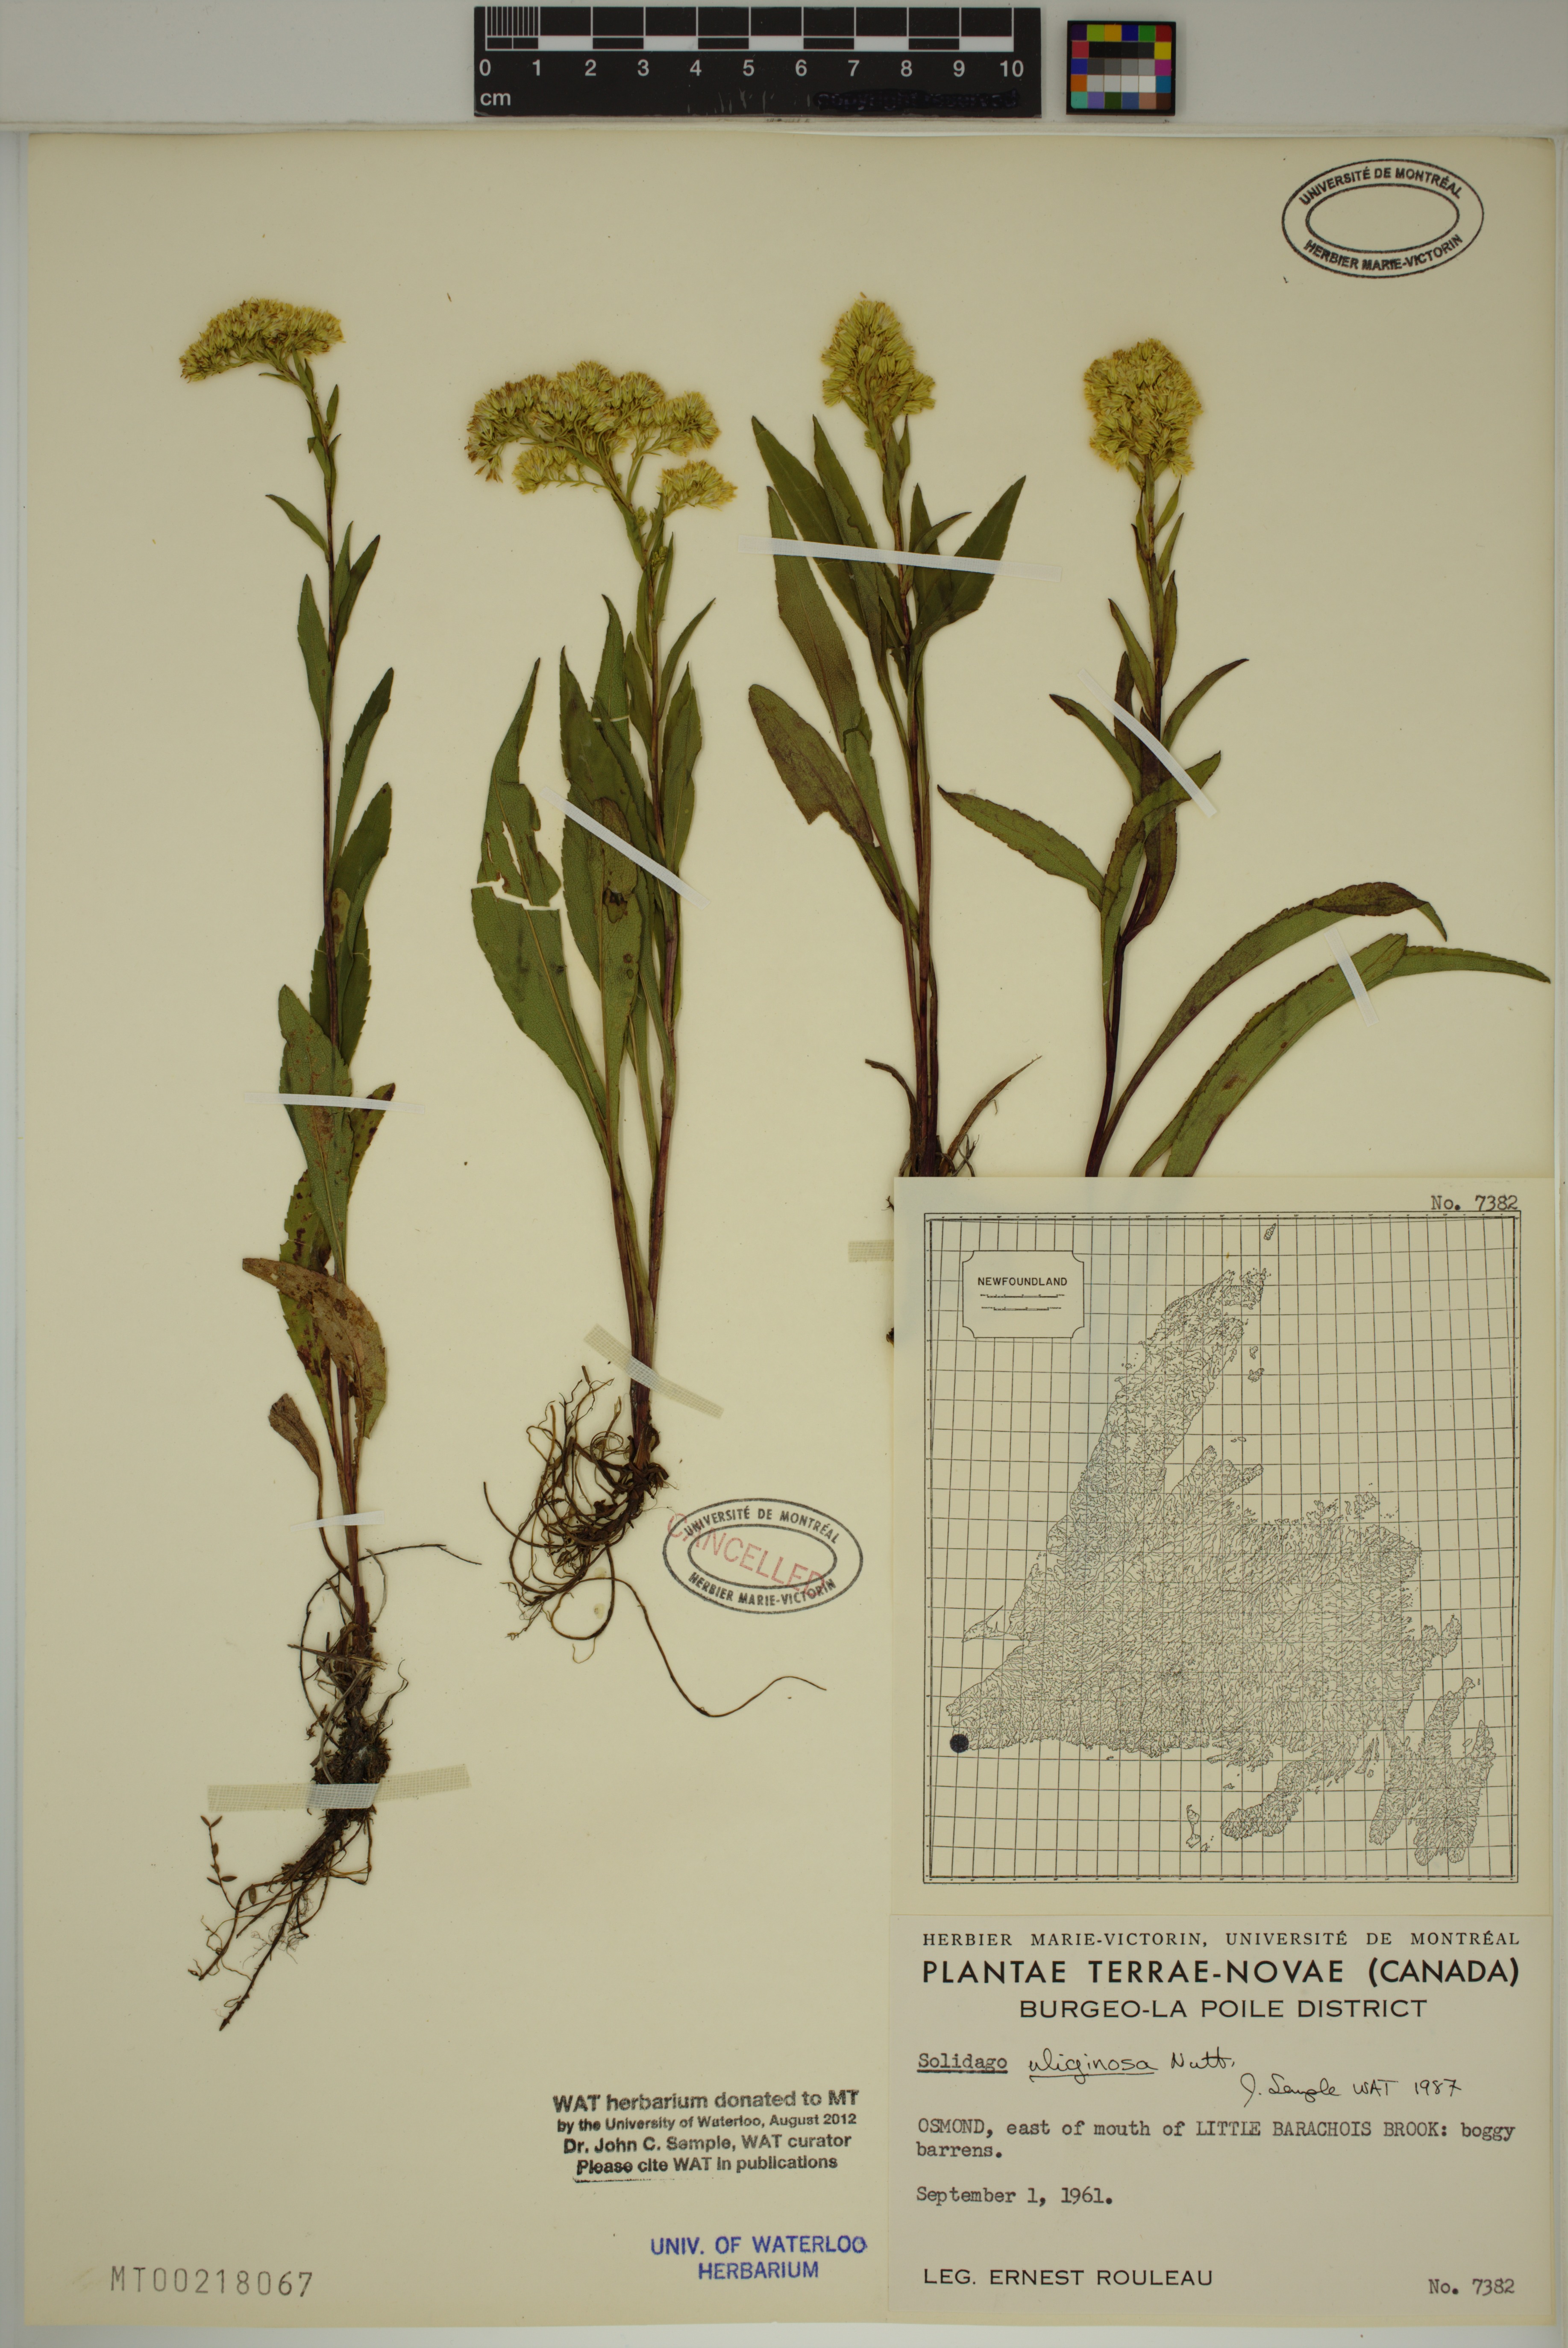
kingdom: Plantae
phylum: Tracheophyta
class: Magnoliopsida
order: Asterales
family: Asteraceae
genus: Solidago
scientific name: Solidago uliginosa
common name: Bog goldenrod
